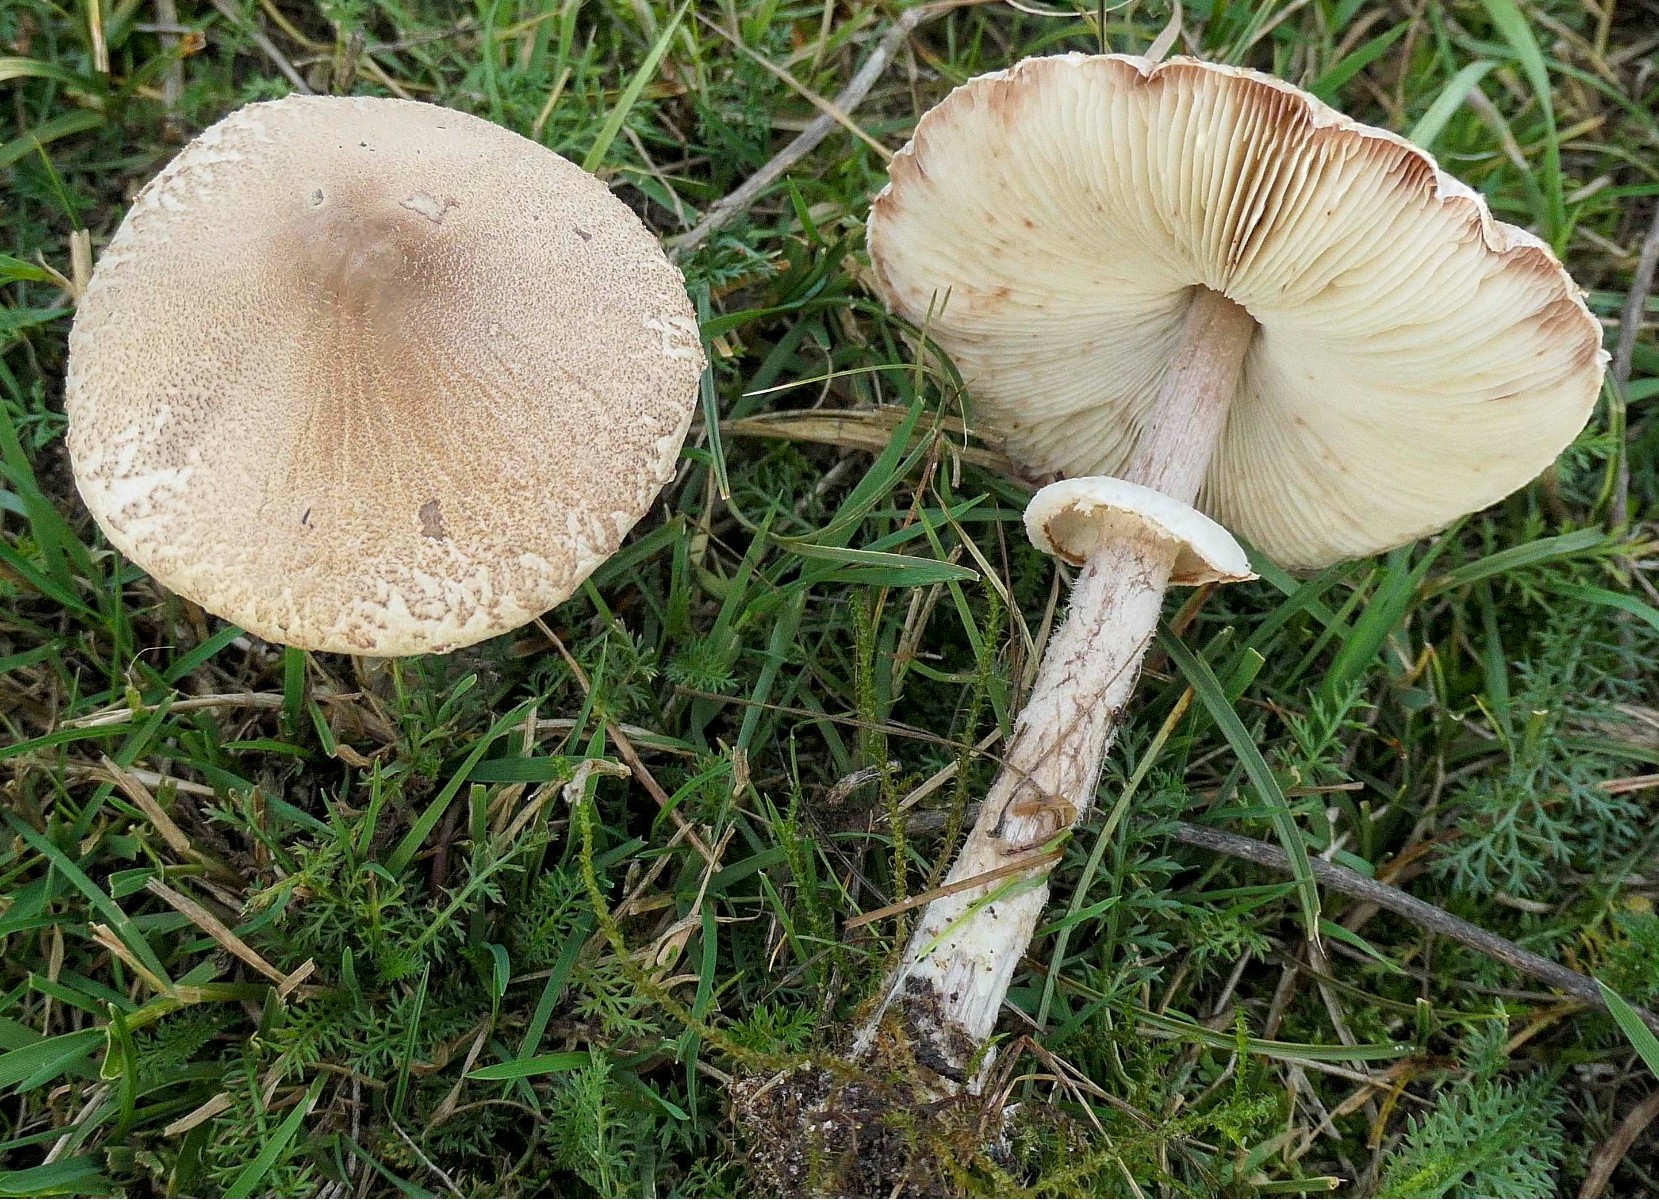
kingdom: Fungi
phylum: Basidiomycota
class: Agaricomycetes
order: Agaricales
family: Agaricaceae
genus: Macrolepiota
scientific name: Macrolepiota excoriata
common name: mark-kæmpeparasolhat
